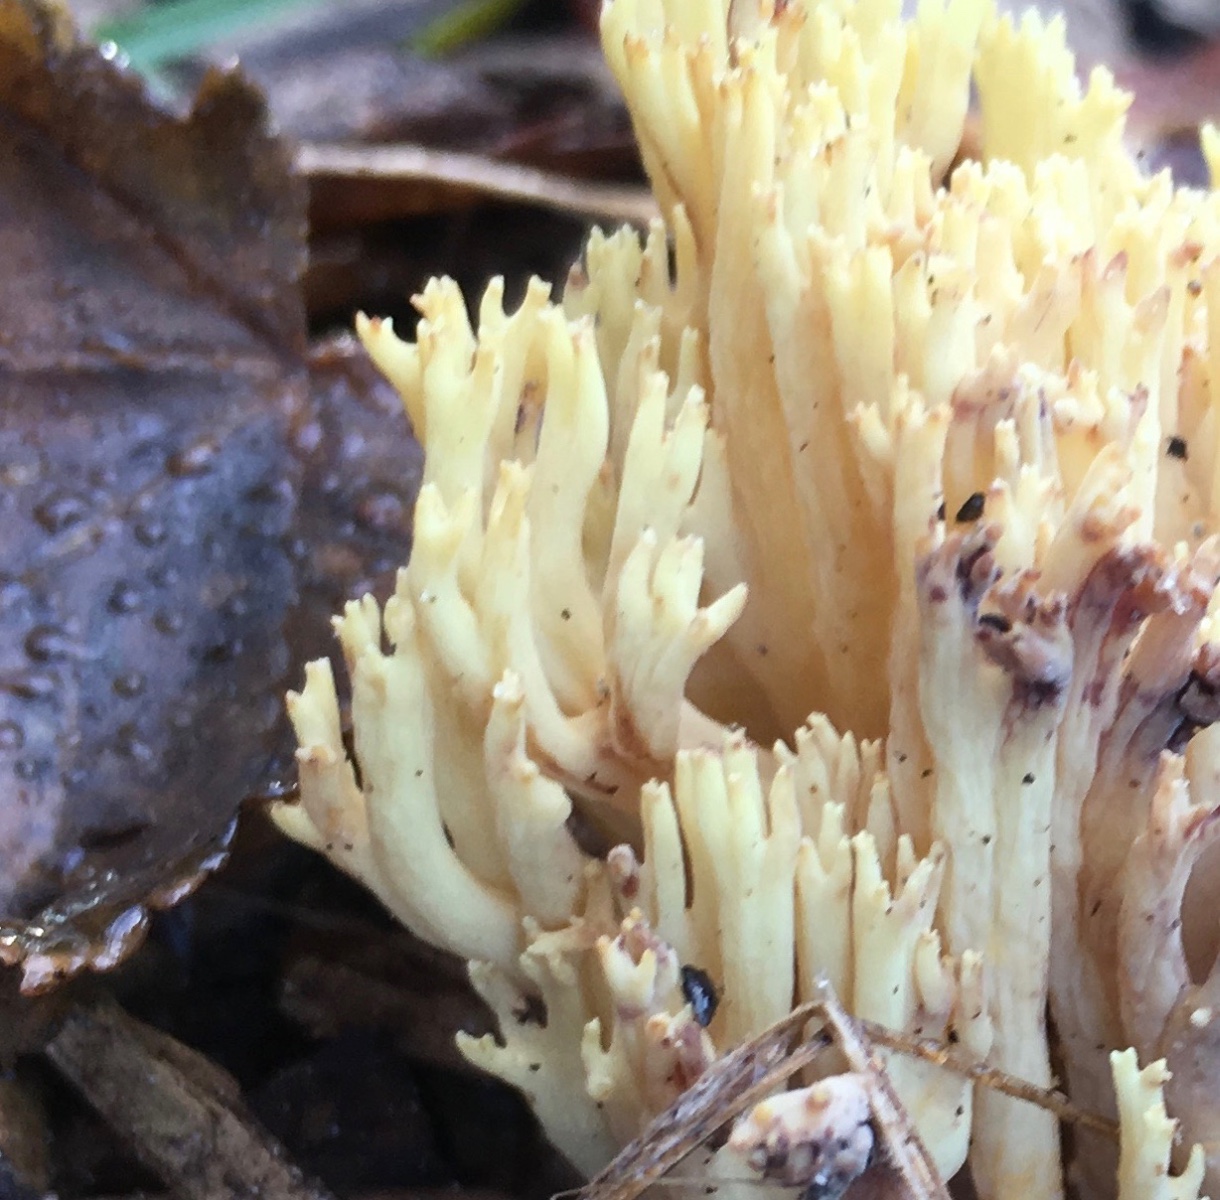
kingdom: Fungi
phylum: Basidiomycota
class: Agaricomycetes
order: Gomphales
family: Gomphaceae
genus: Ramaria
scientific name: Ramaria stricta
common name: rank koralsvamp
